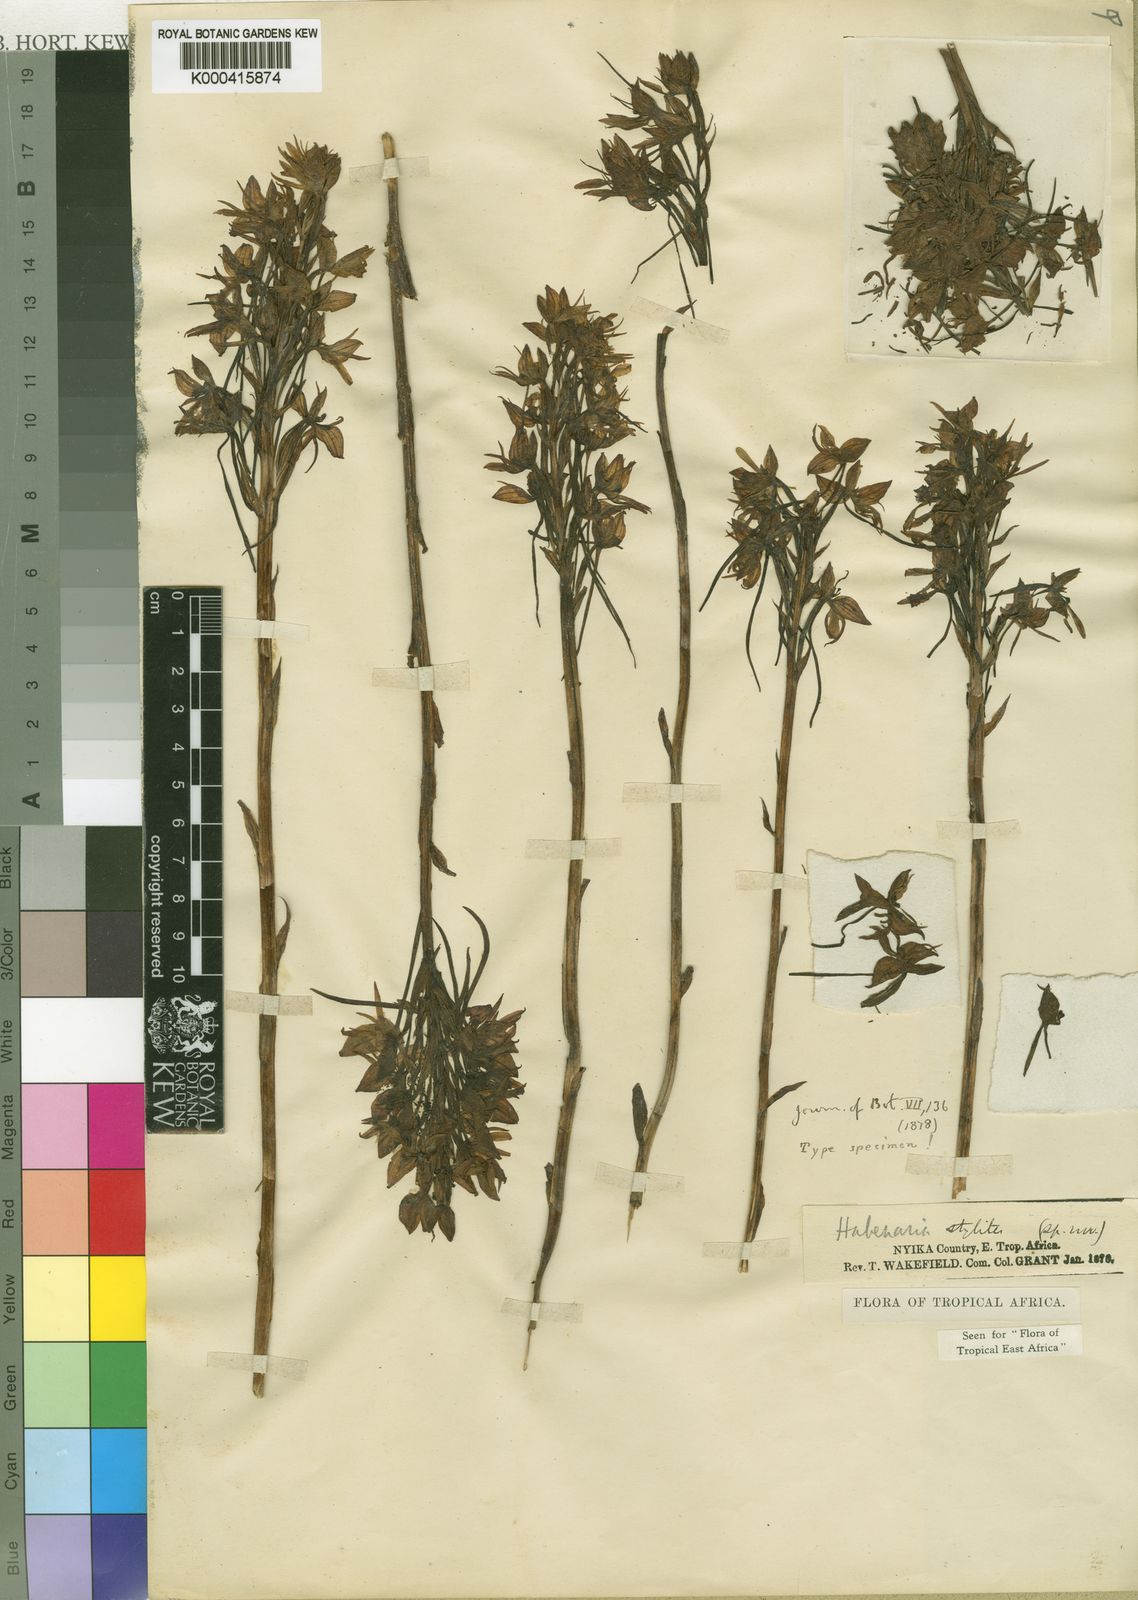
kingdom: Plantae
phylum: Tracheophyta
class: Liliopsida
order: Asparagales
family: Orchidaceae
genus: Habenaria
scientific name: Habenaria stylites
